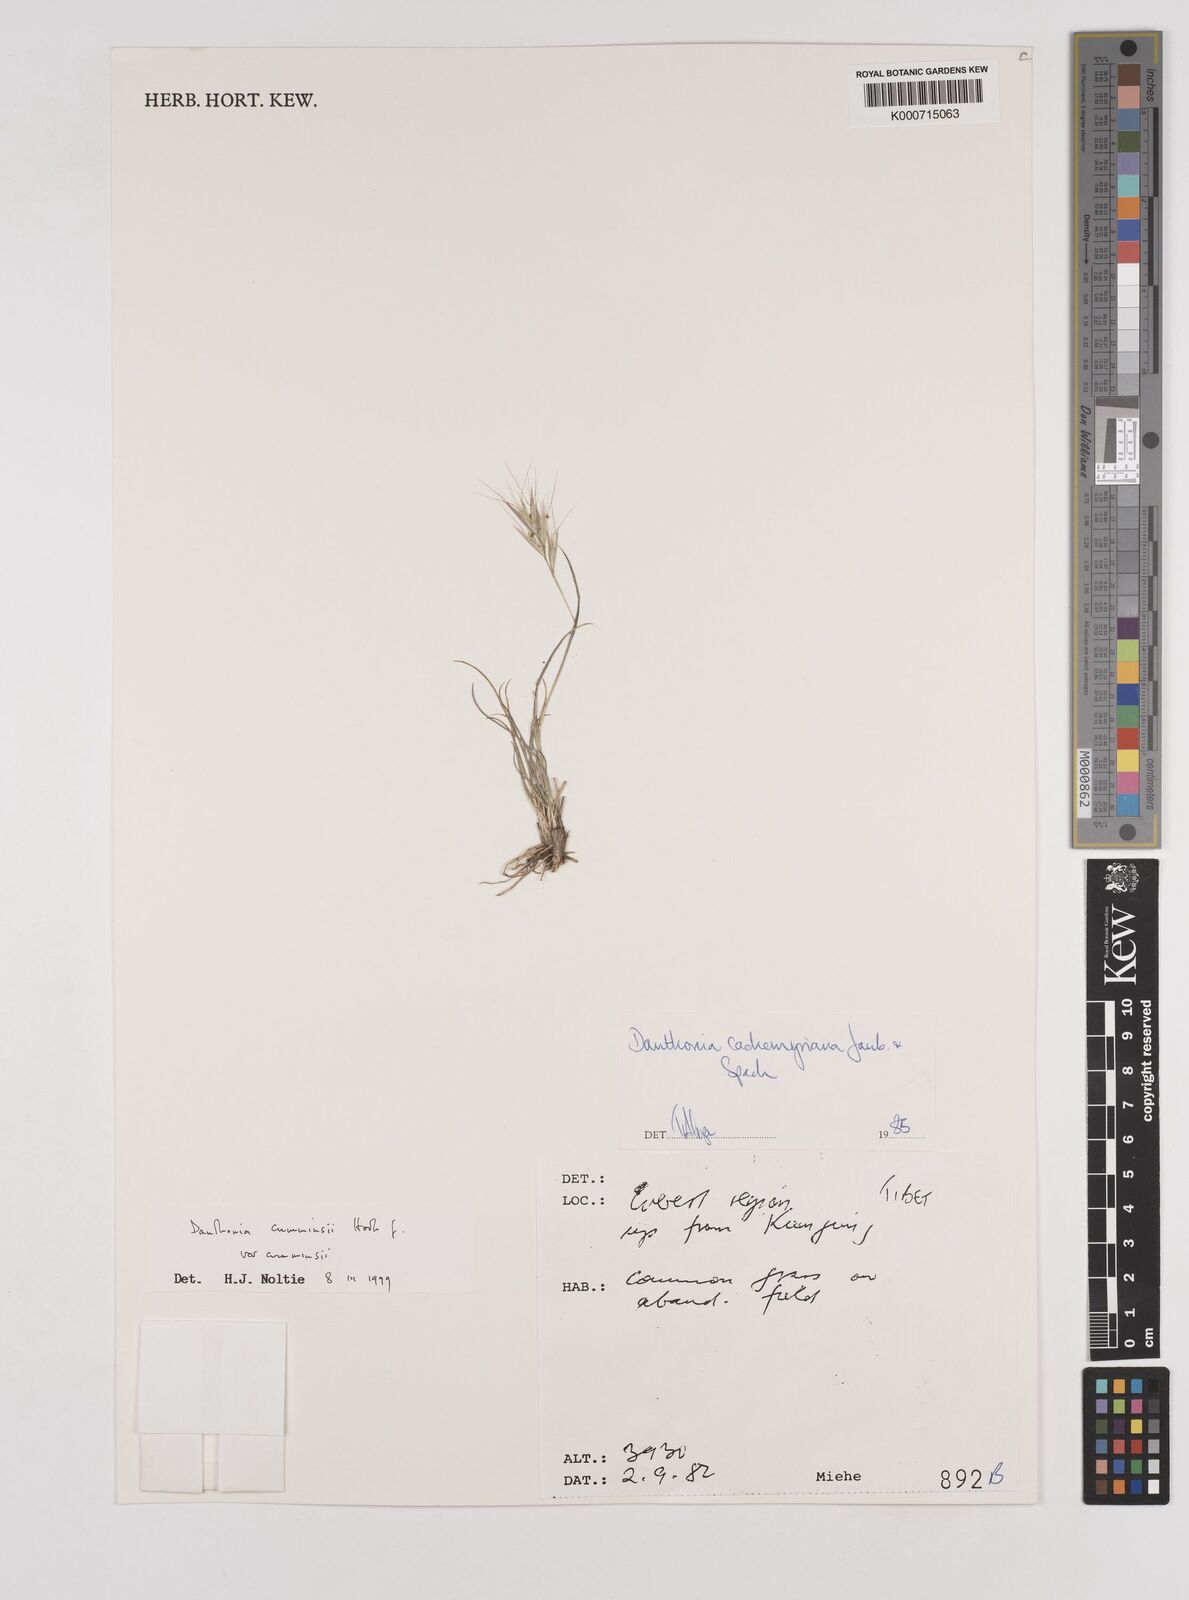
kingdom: Plantae
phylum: Tracheophyta
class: Liliopsida
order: Poales
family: Poaceae
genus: Rytidosperma
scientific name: Rytidosperma
